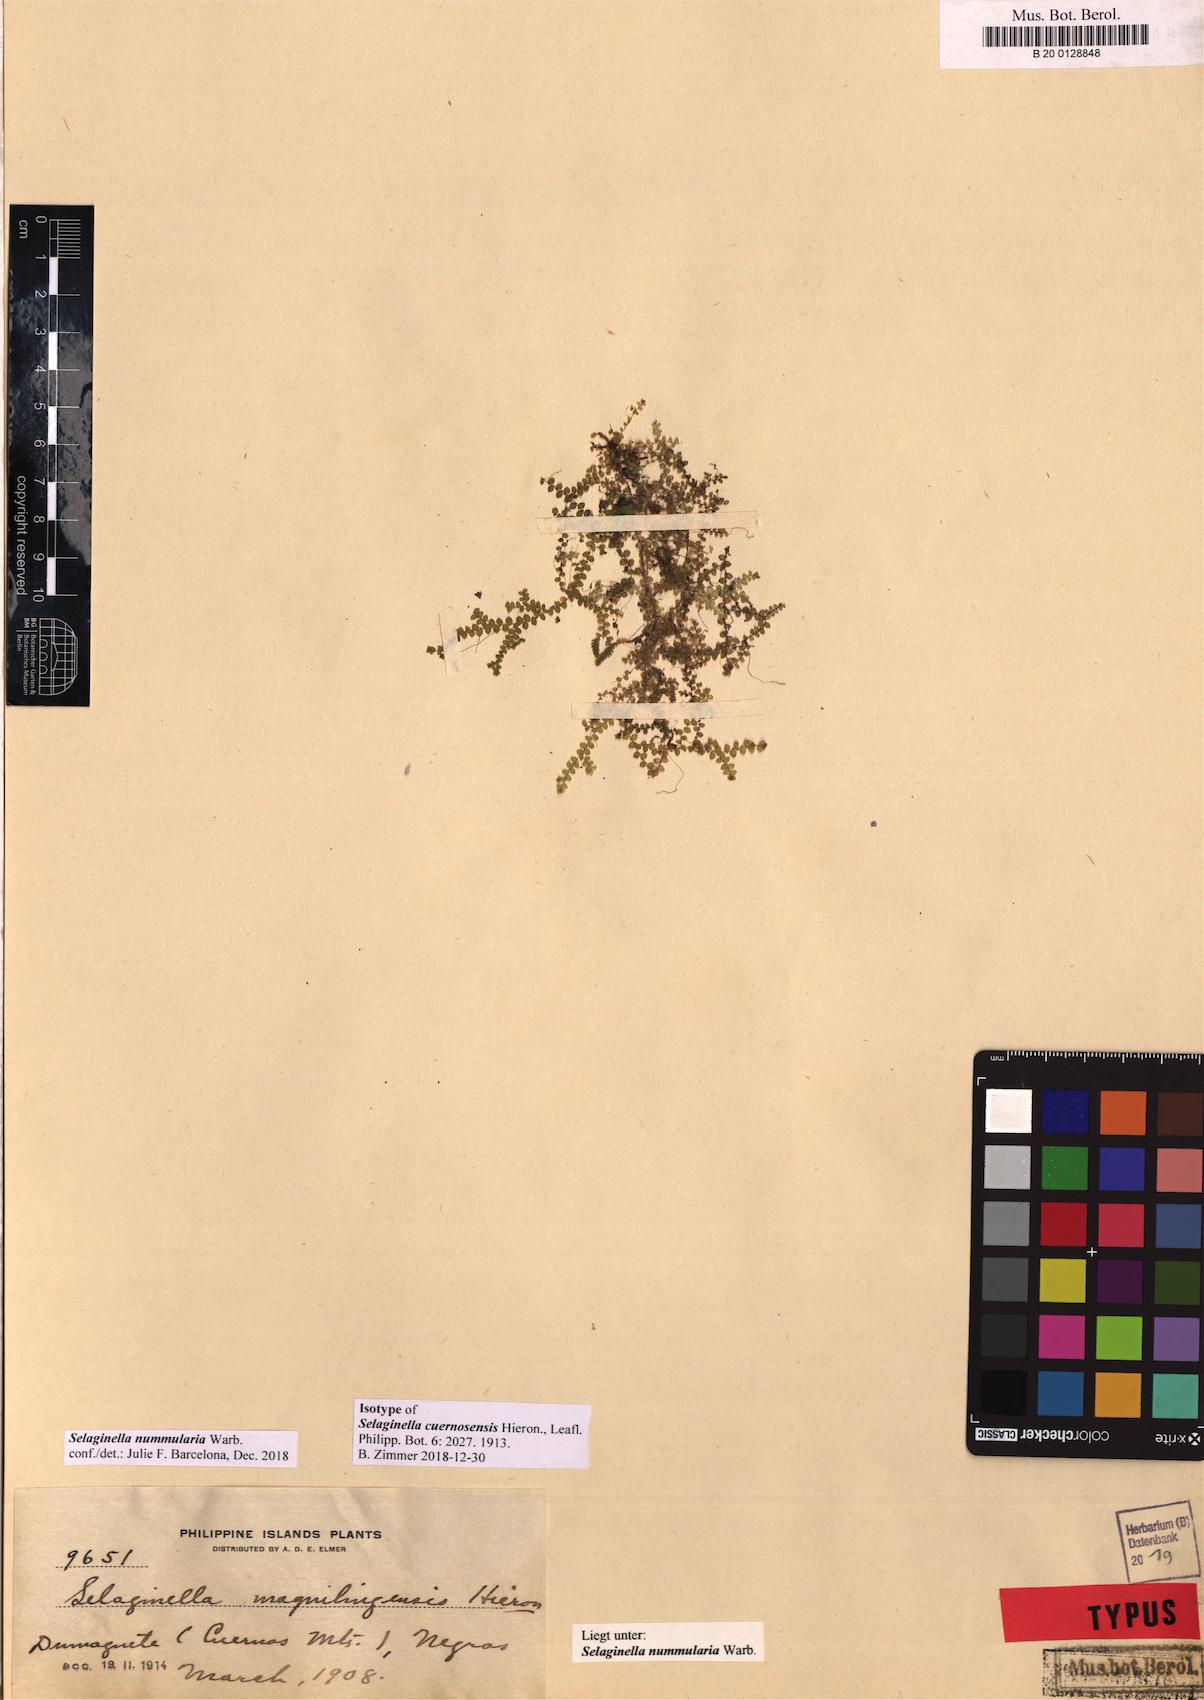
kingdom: Plantae
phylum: Tracheophyta
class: Lycopodiopsida
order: Selaginellales
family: Selaginellaceae
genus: Selaginella
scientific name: Selaginella nummularia
